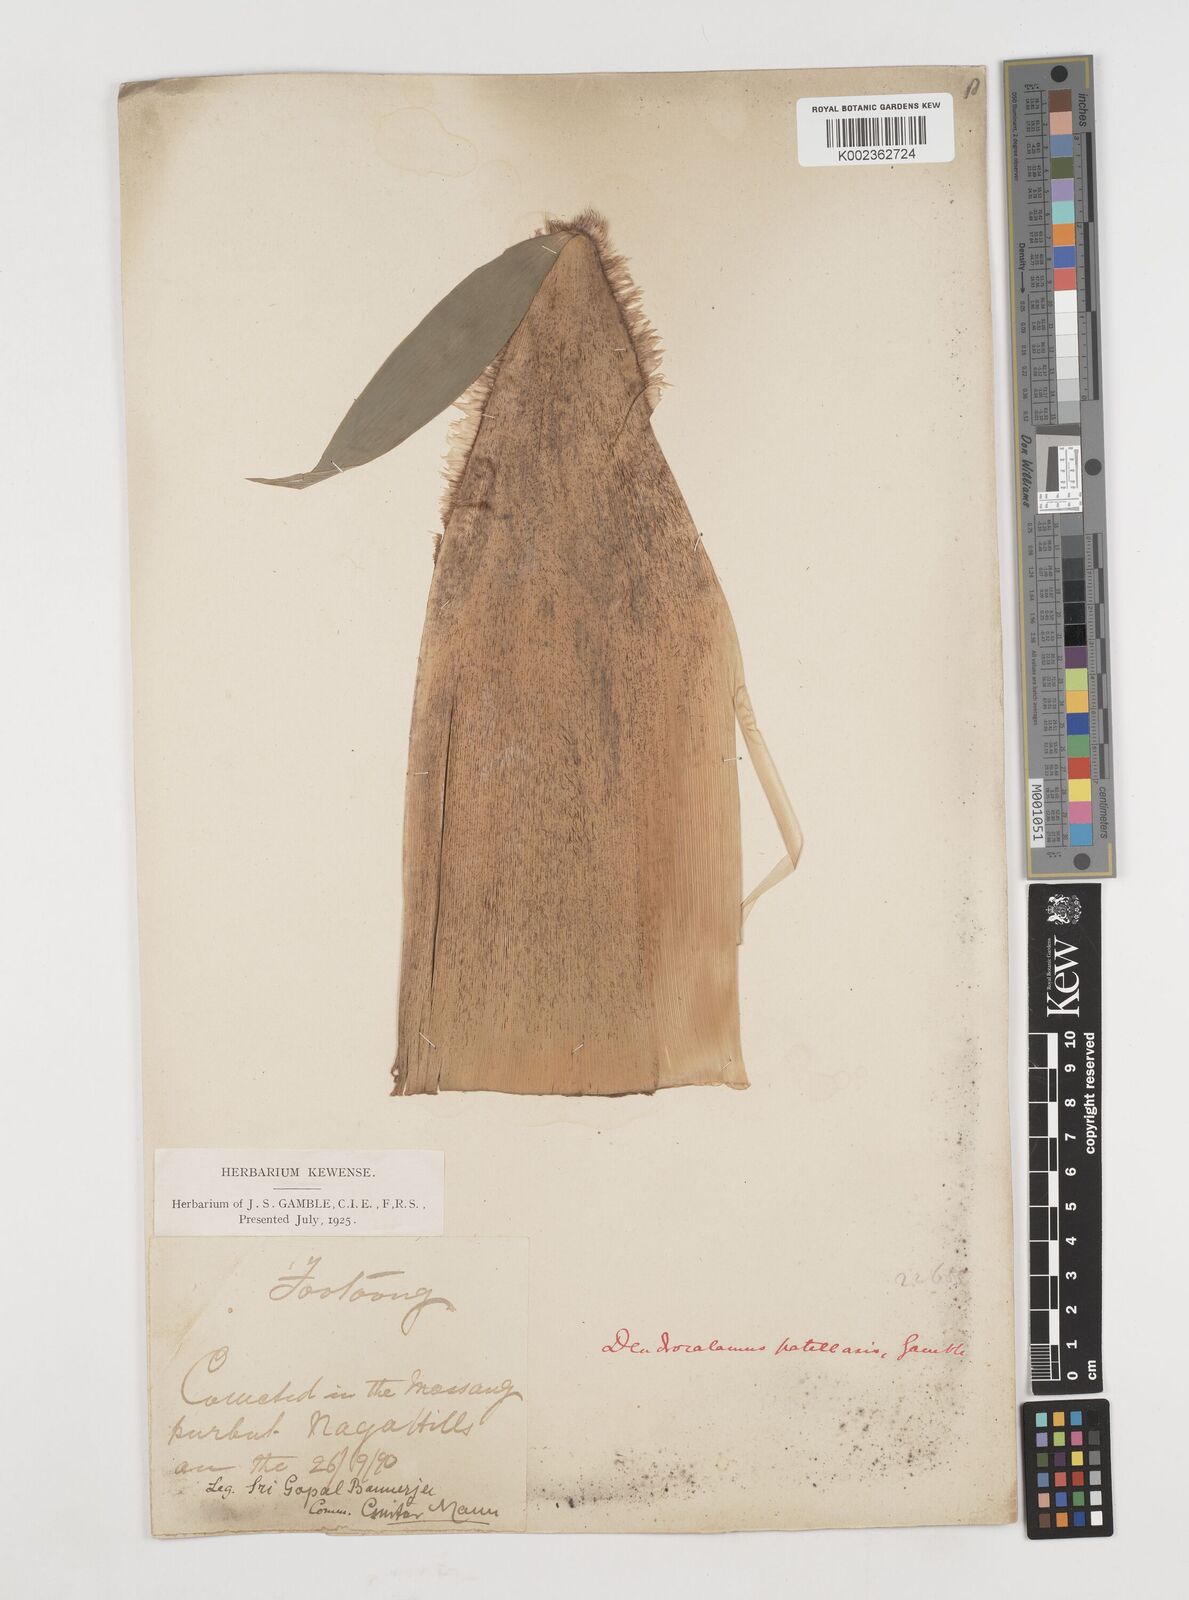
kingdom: Plantae
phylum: Tracheophyta
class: Liliopsida
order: Poales
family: Poaceae
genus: Ampelocalamus
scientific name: Ampelocalamus patellaris
